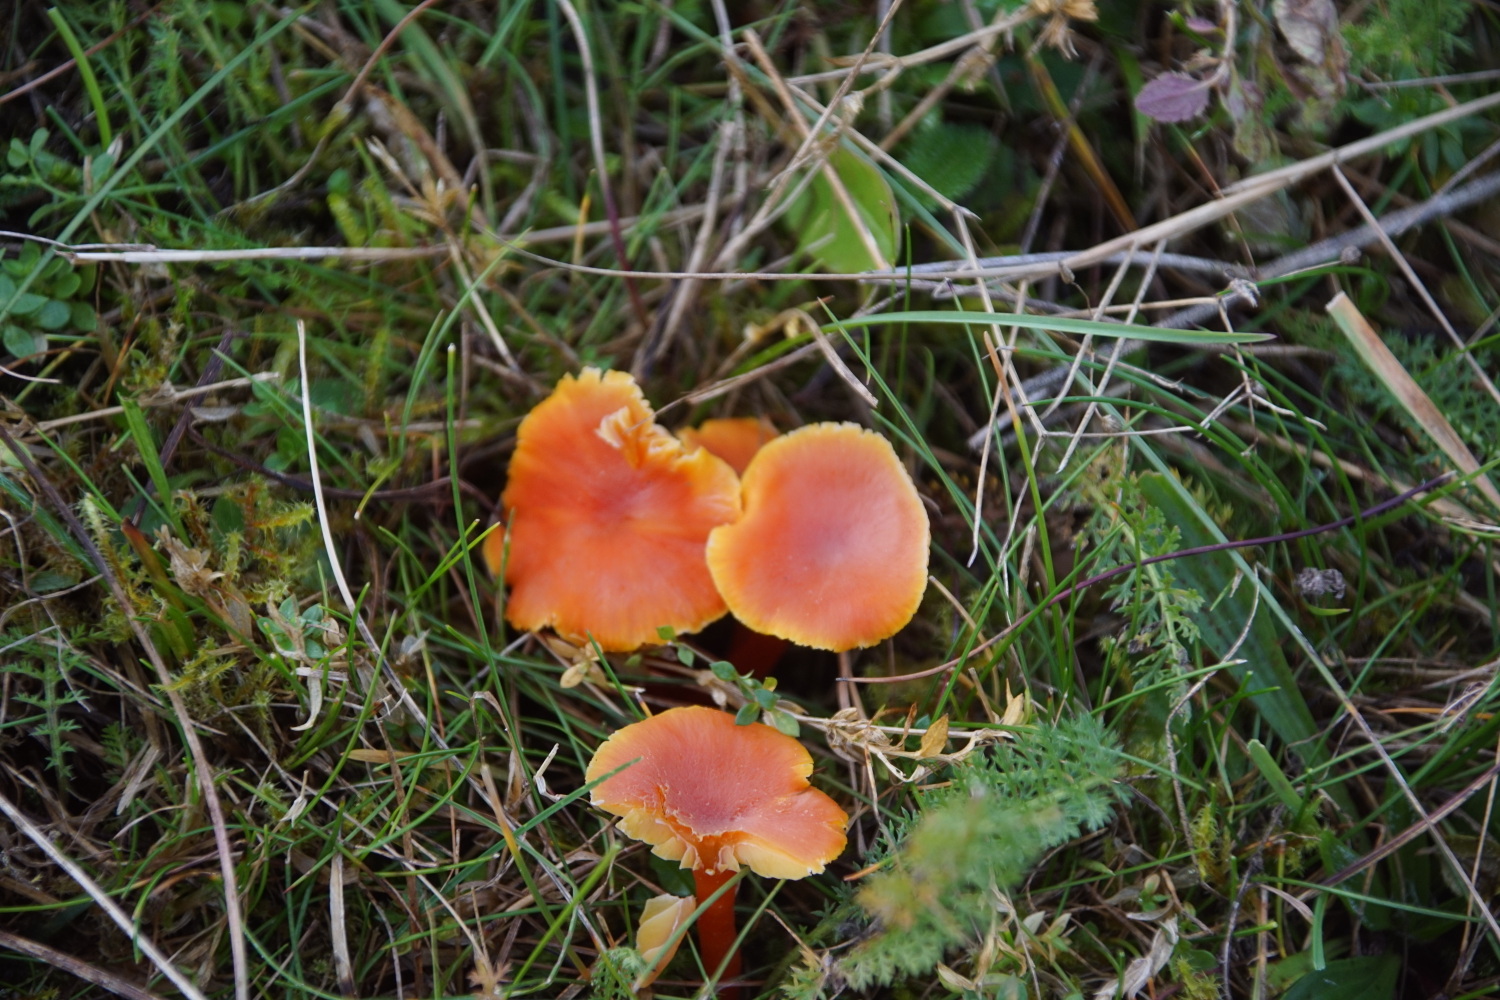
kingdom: Fungi
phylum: Basidiomycota
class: Agaricomycetes
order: Agaricales
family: Hygrophoraceae
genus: Hygrocybe
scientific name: Hygrocybe miniata
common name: mønje-vokshat
